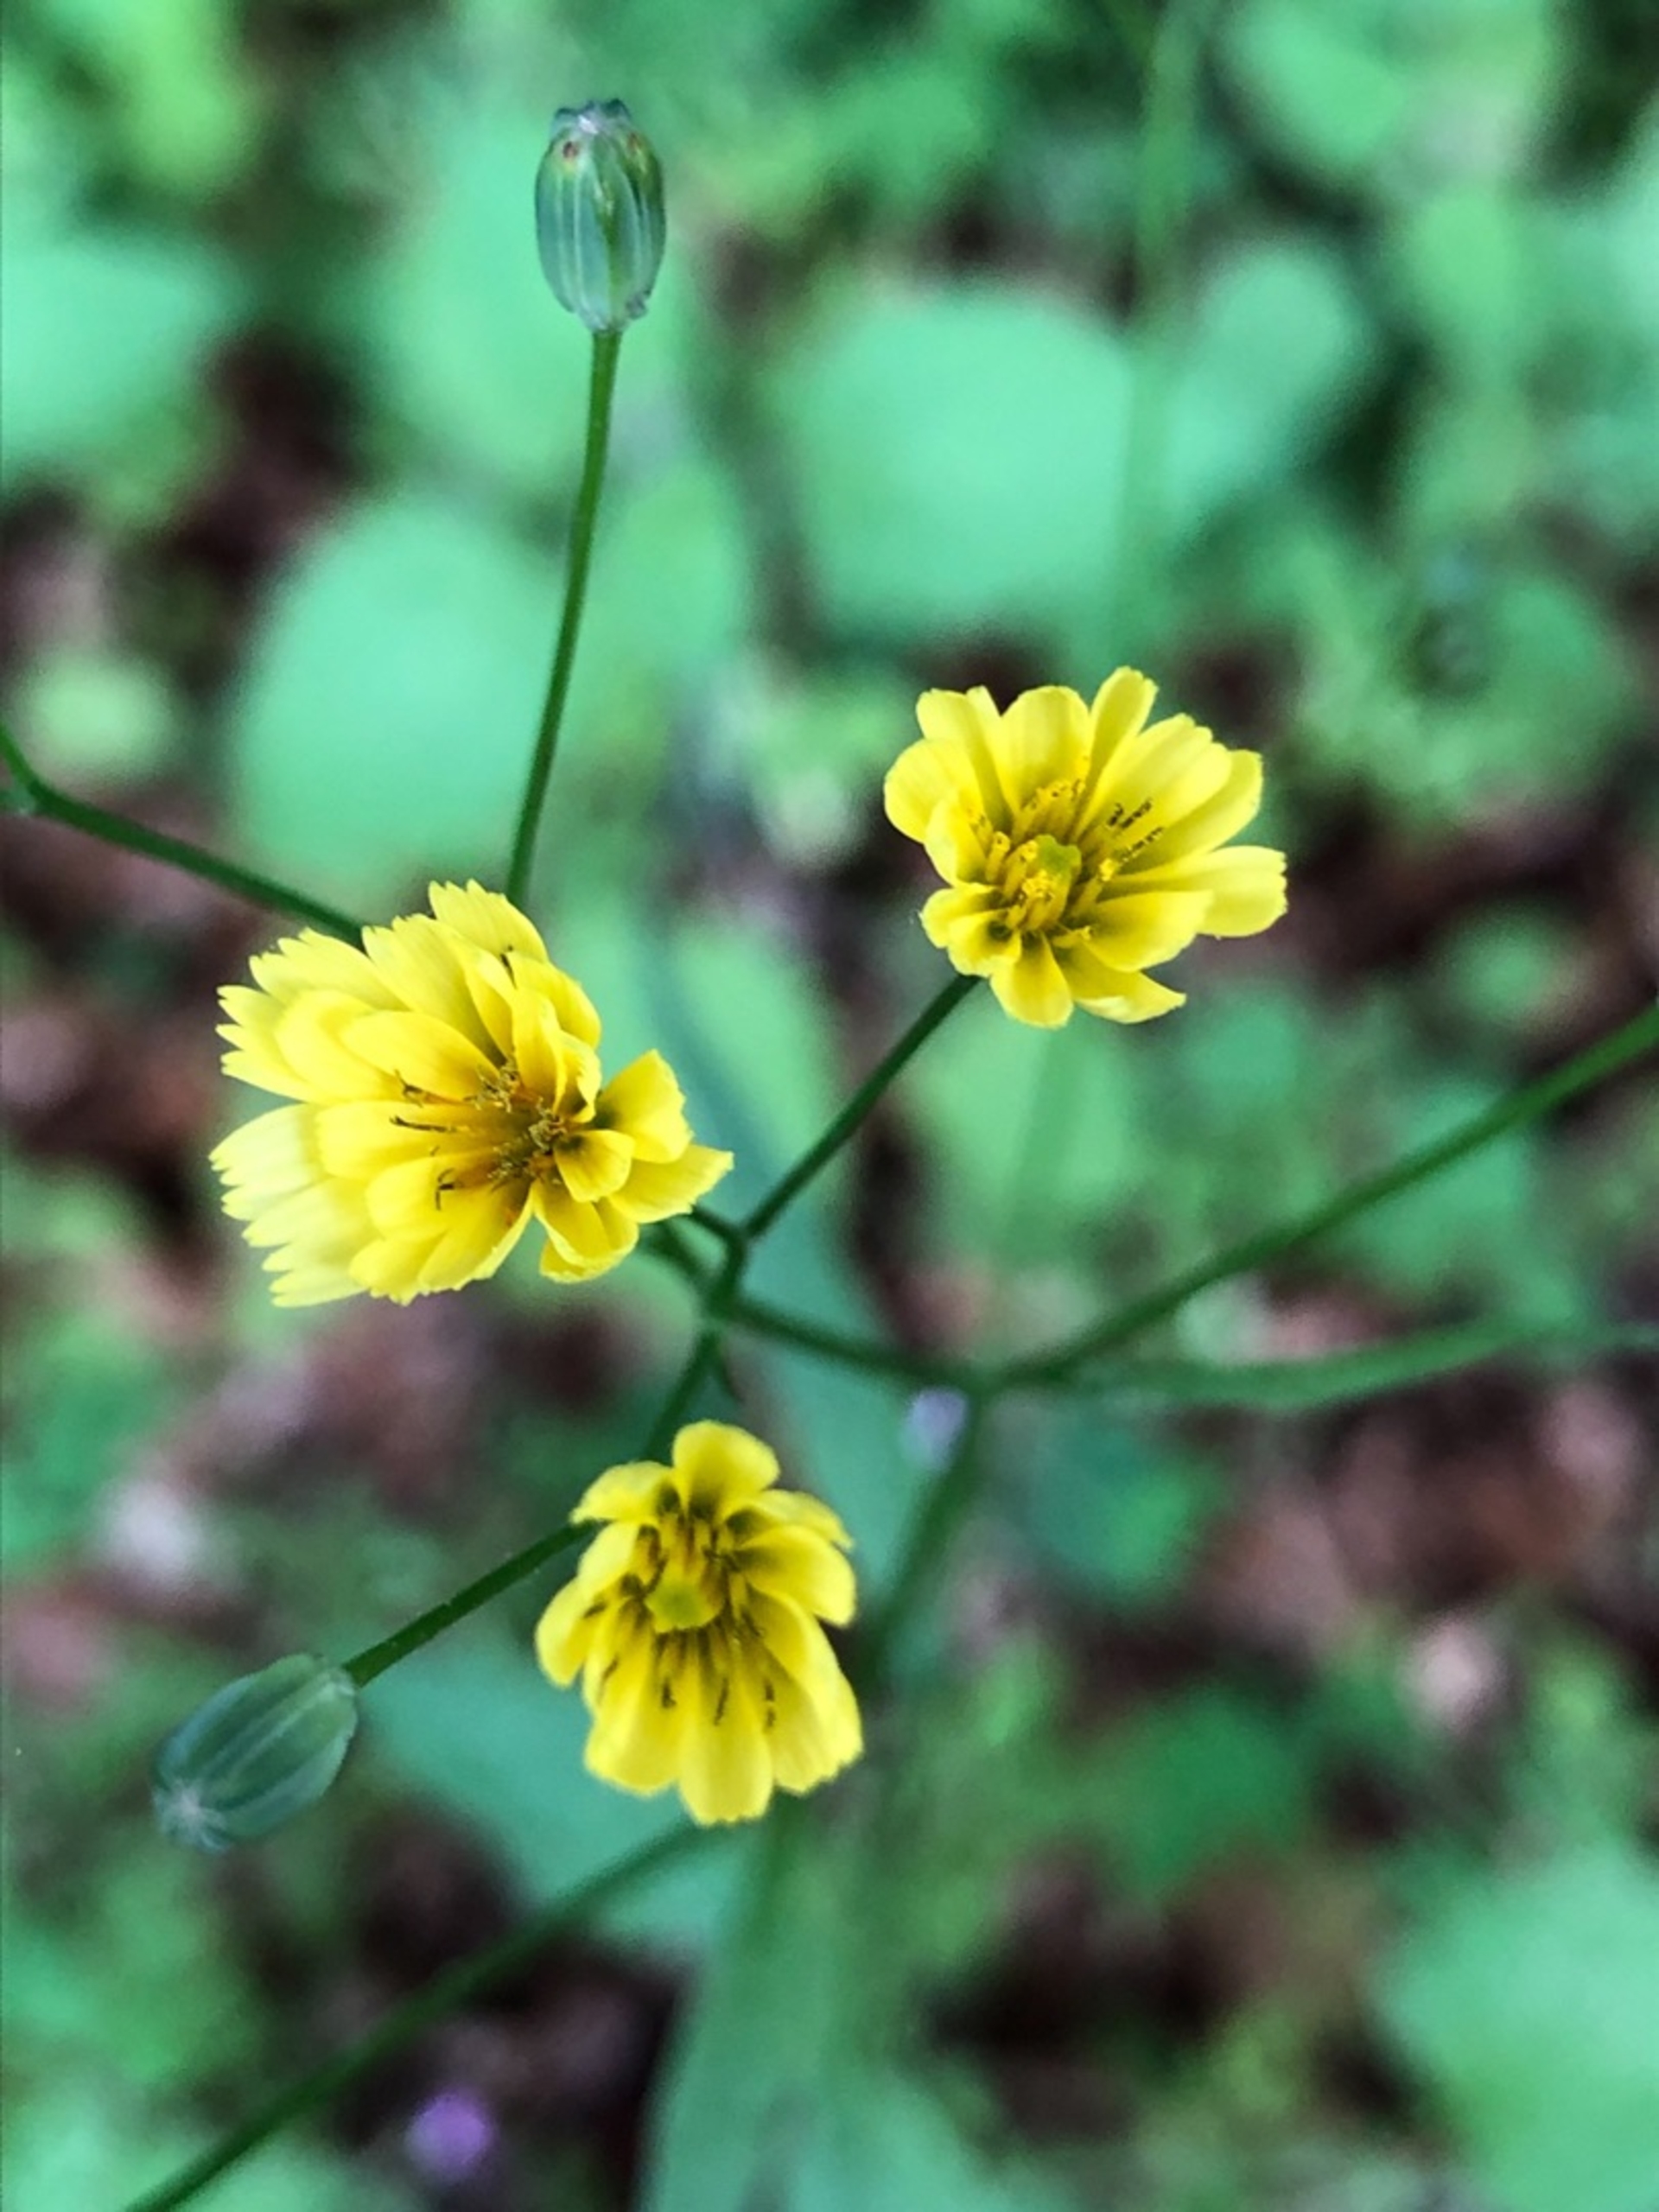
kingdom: Plantae
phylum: Tracheophyta
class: Magnoliopsida
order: Asterales
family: Asteraceae
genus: Lapsana
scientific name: Lapsana communis
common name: Haremad
